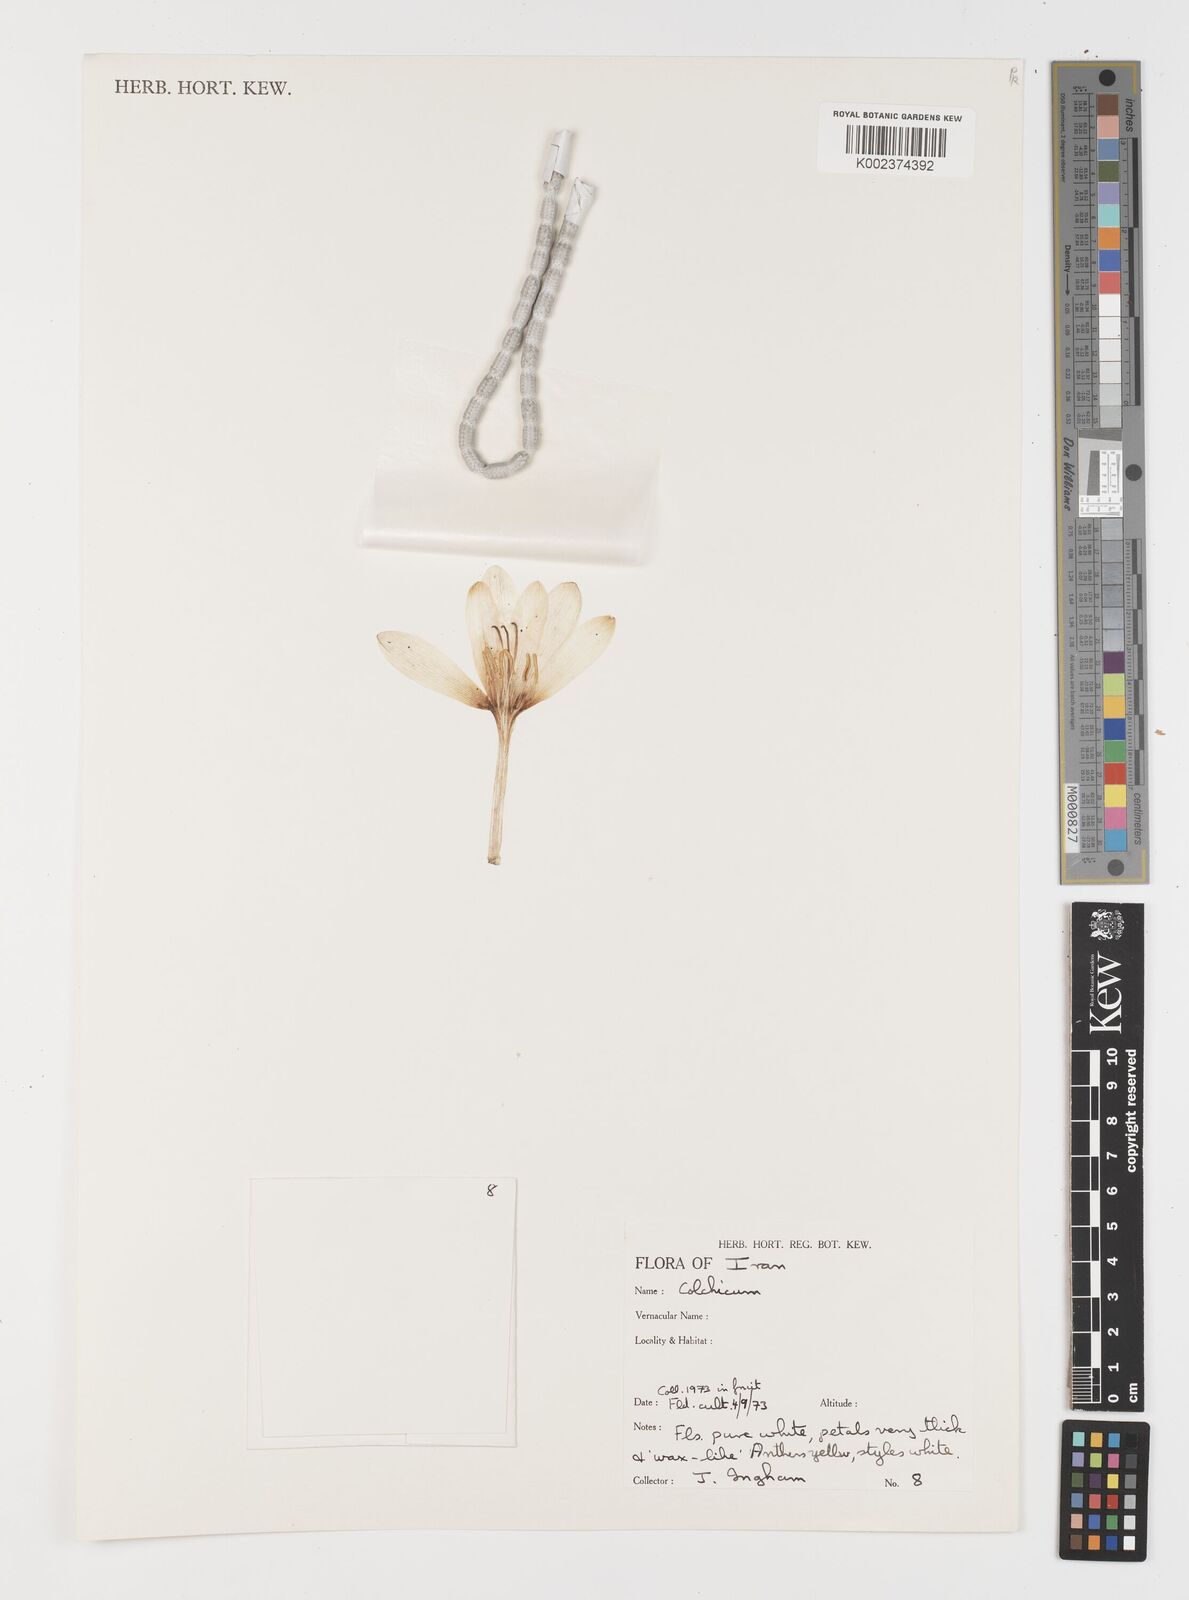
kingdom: Plantae
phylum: Tracheophyta
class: Liliopsida
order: Liliales
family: Colchicaceae
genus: Colchicum
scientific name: Colchicum
